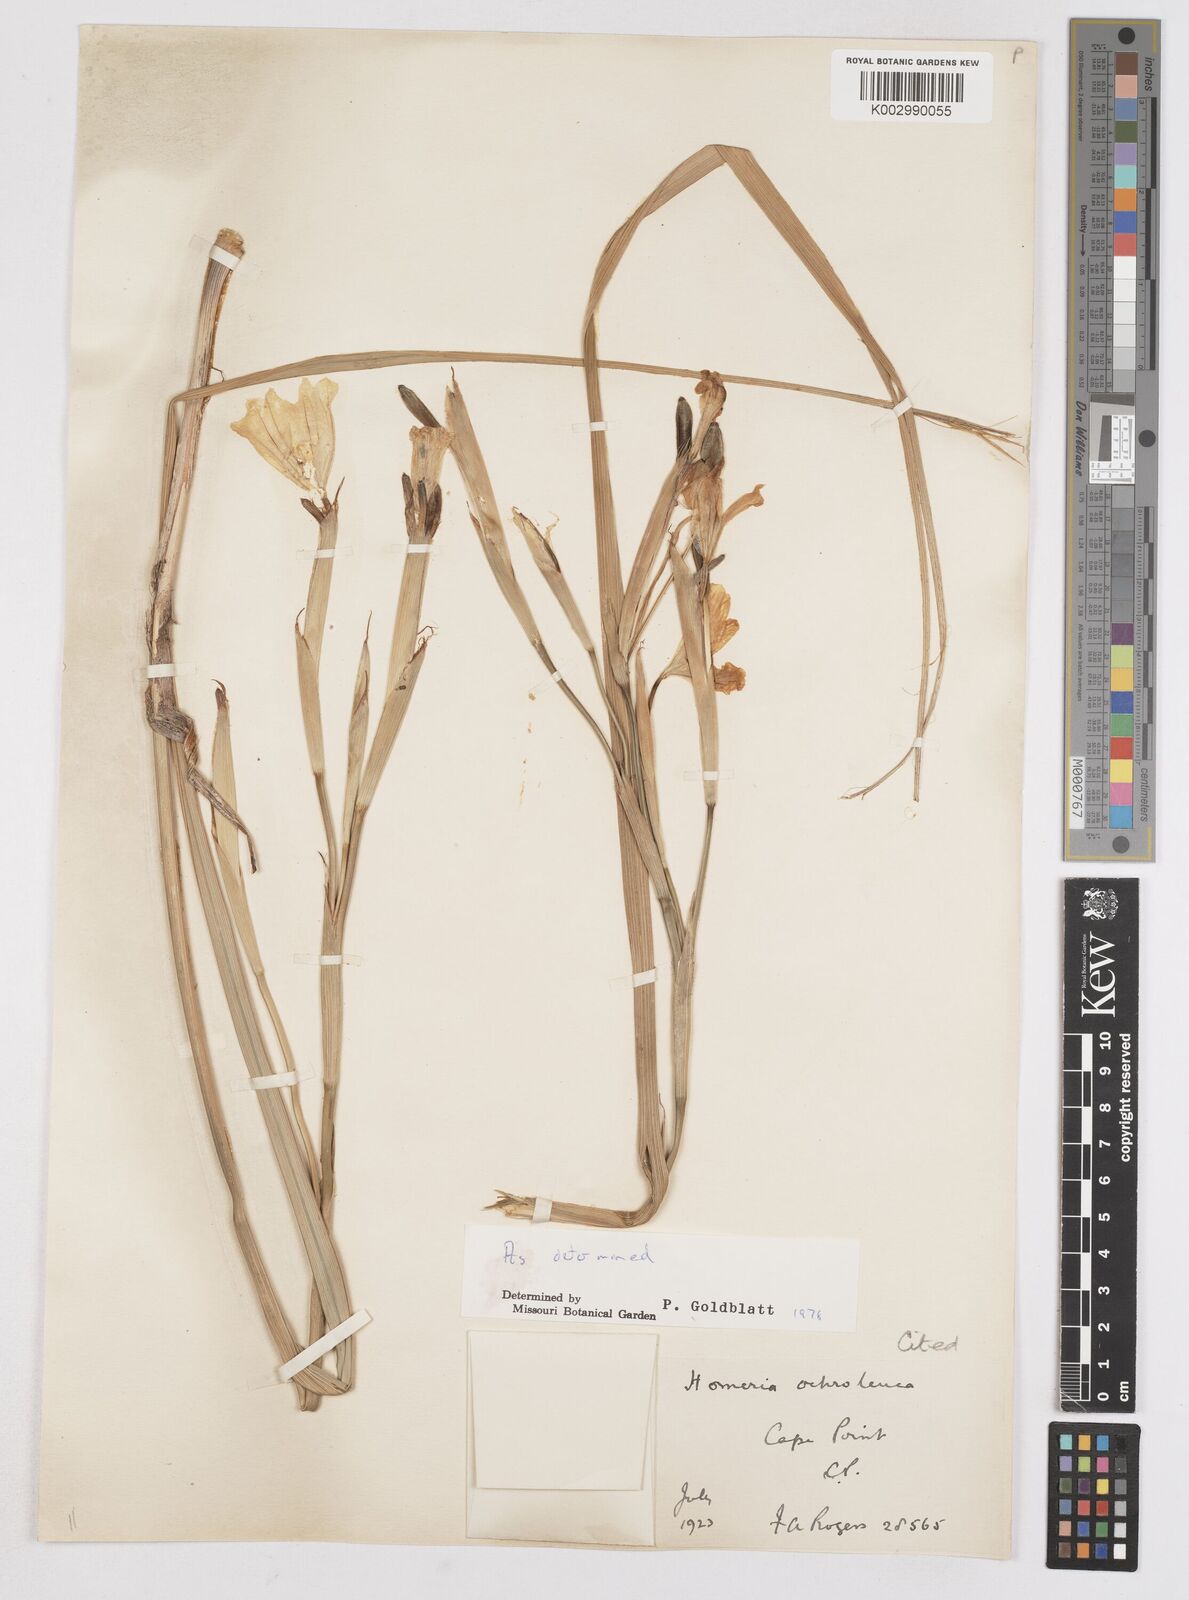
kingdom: Plantae
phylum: Tracheophyta
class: Liliopsida
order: Asparagales
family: Iridaceae
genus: Moraea
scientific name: Moraea ochroleuca
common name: Red tulp
